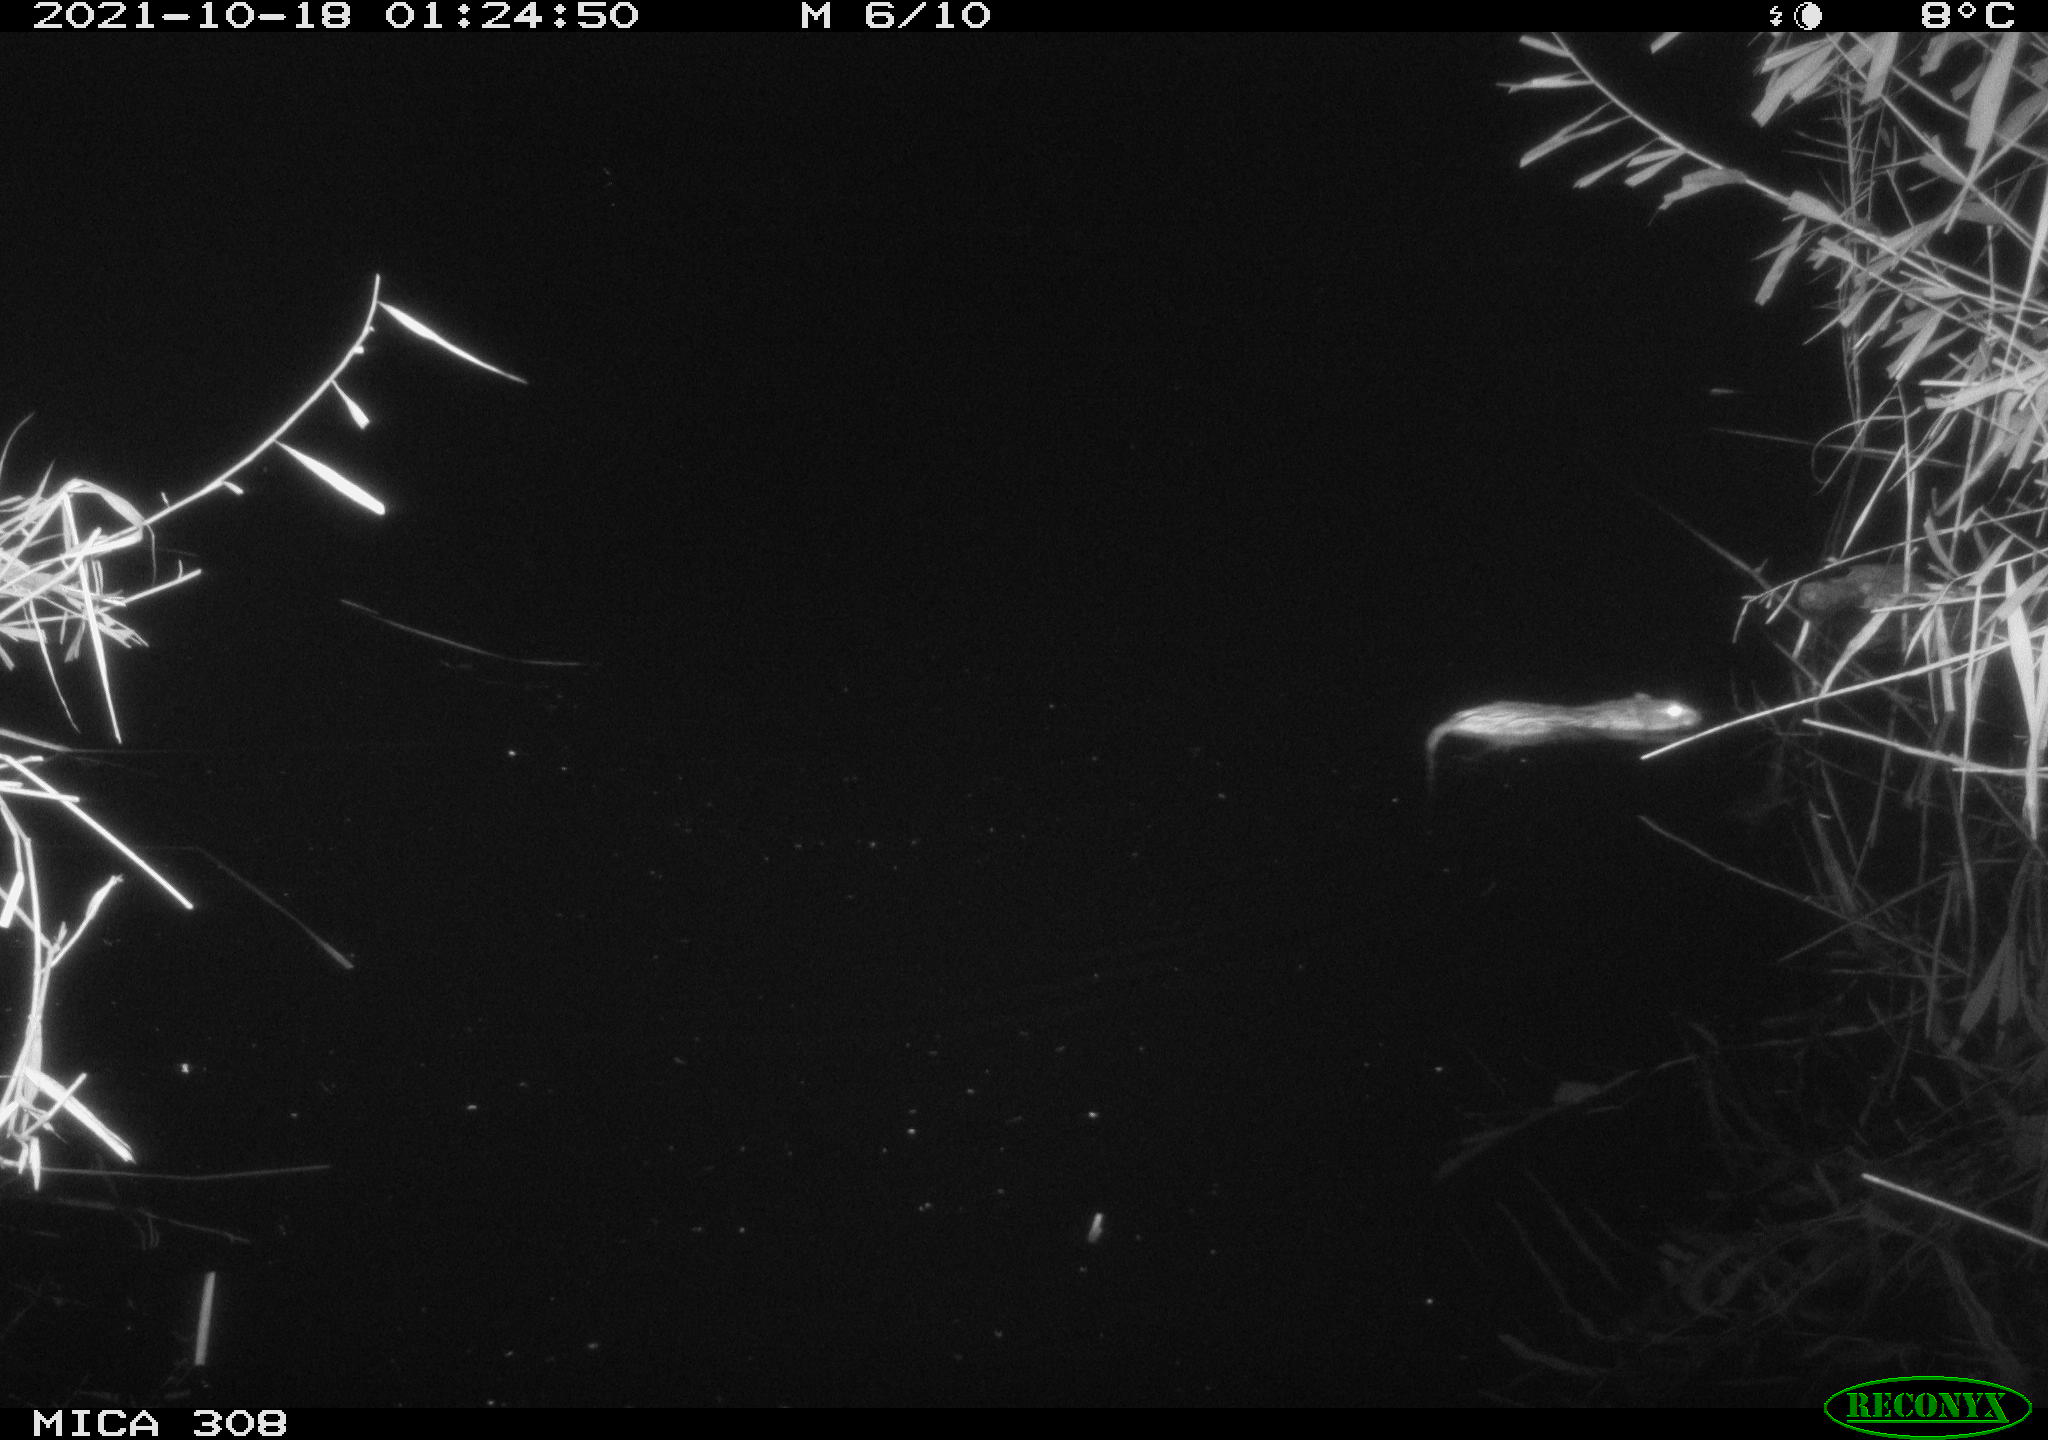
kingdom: Animalia
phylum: Chordata
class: Mammalia
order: Rodentia
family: Cricetidae
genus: Ondatra
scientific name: Ondatra zibethicus
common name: Muskrat
